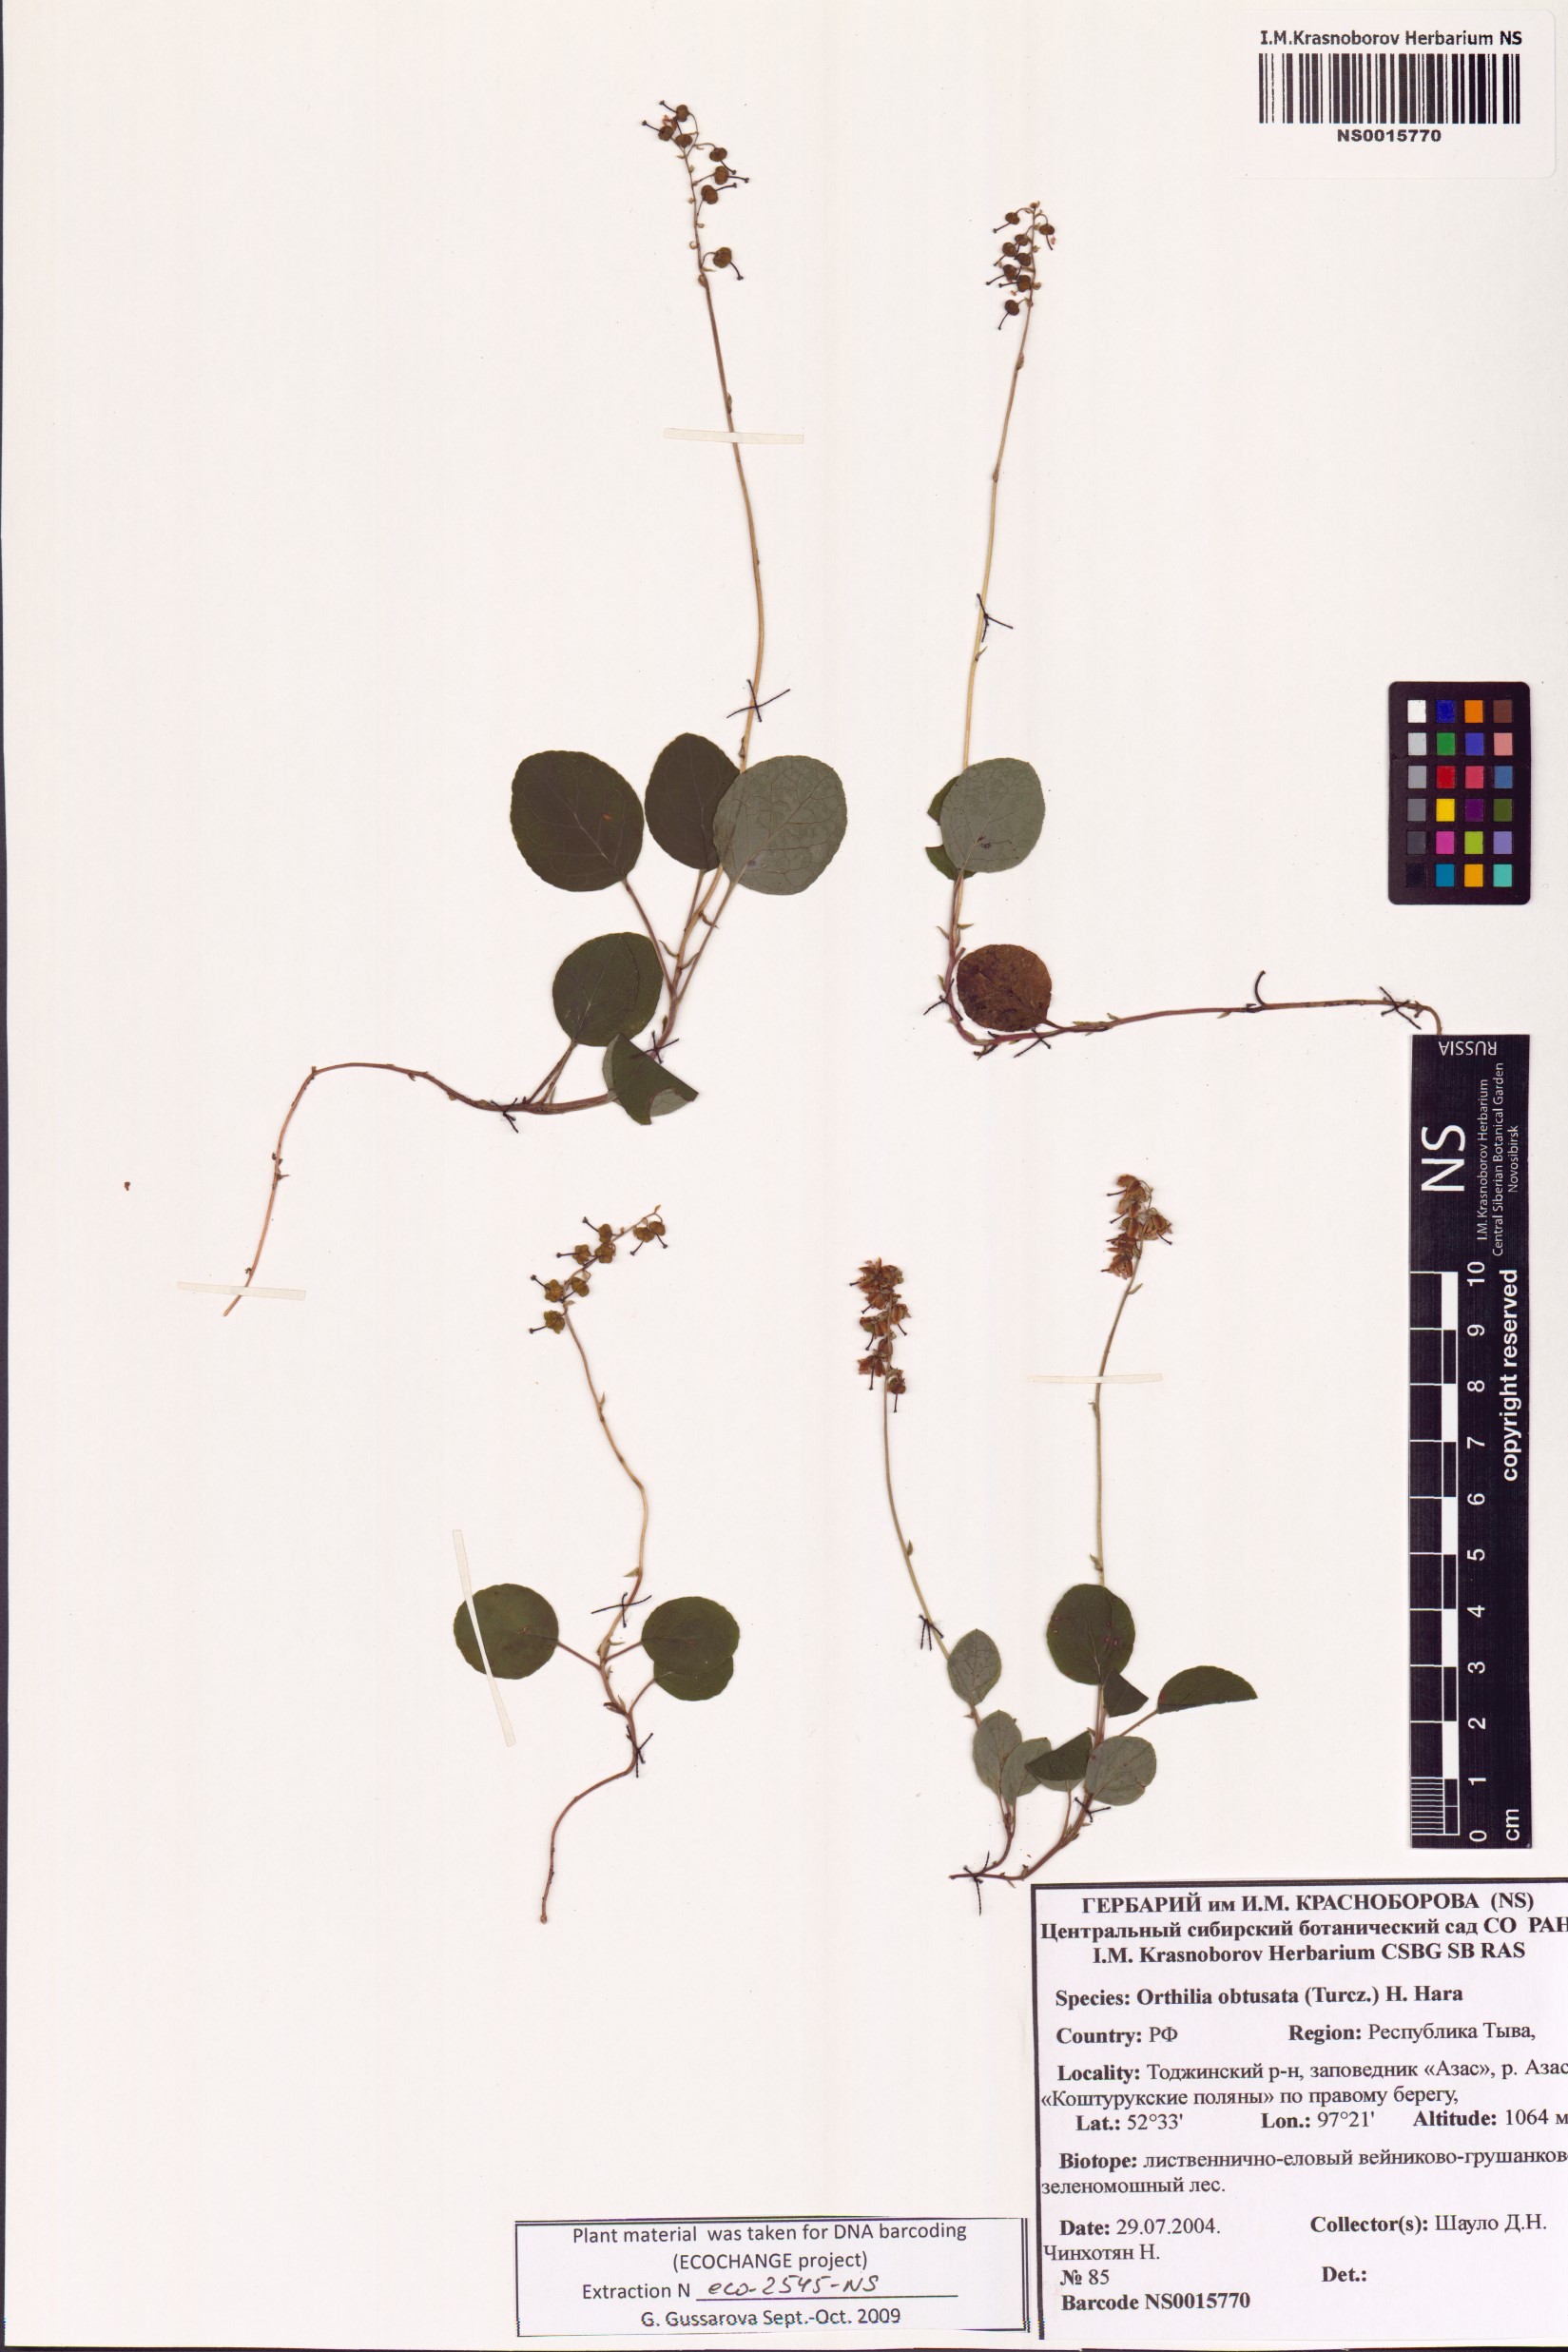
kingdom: Plantae
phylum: Tracheophyta
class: Magnoliopsida
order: Ericales
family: Ericaceae
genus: Orthilia
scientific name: Orthilia secunda
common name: One-sided orthilia
